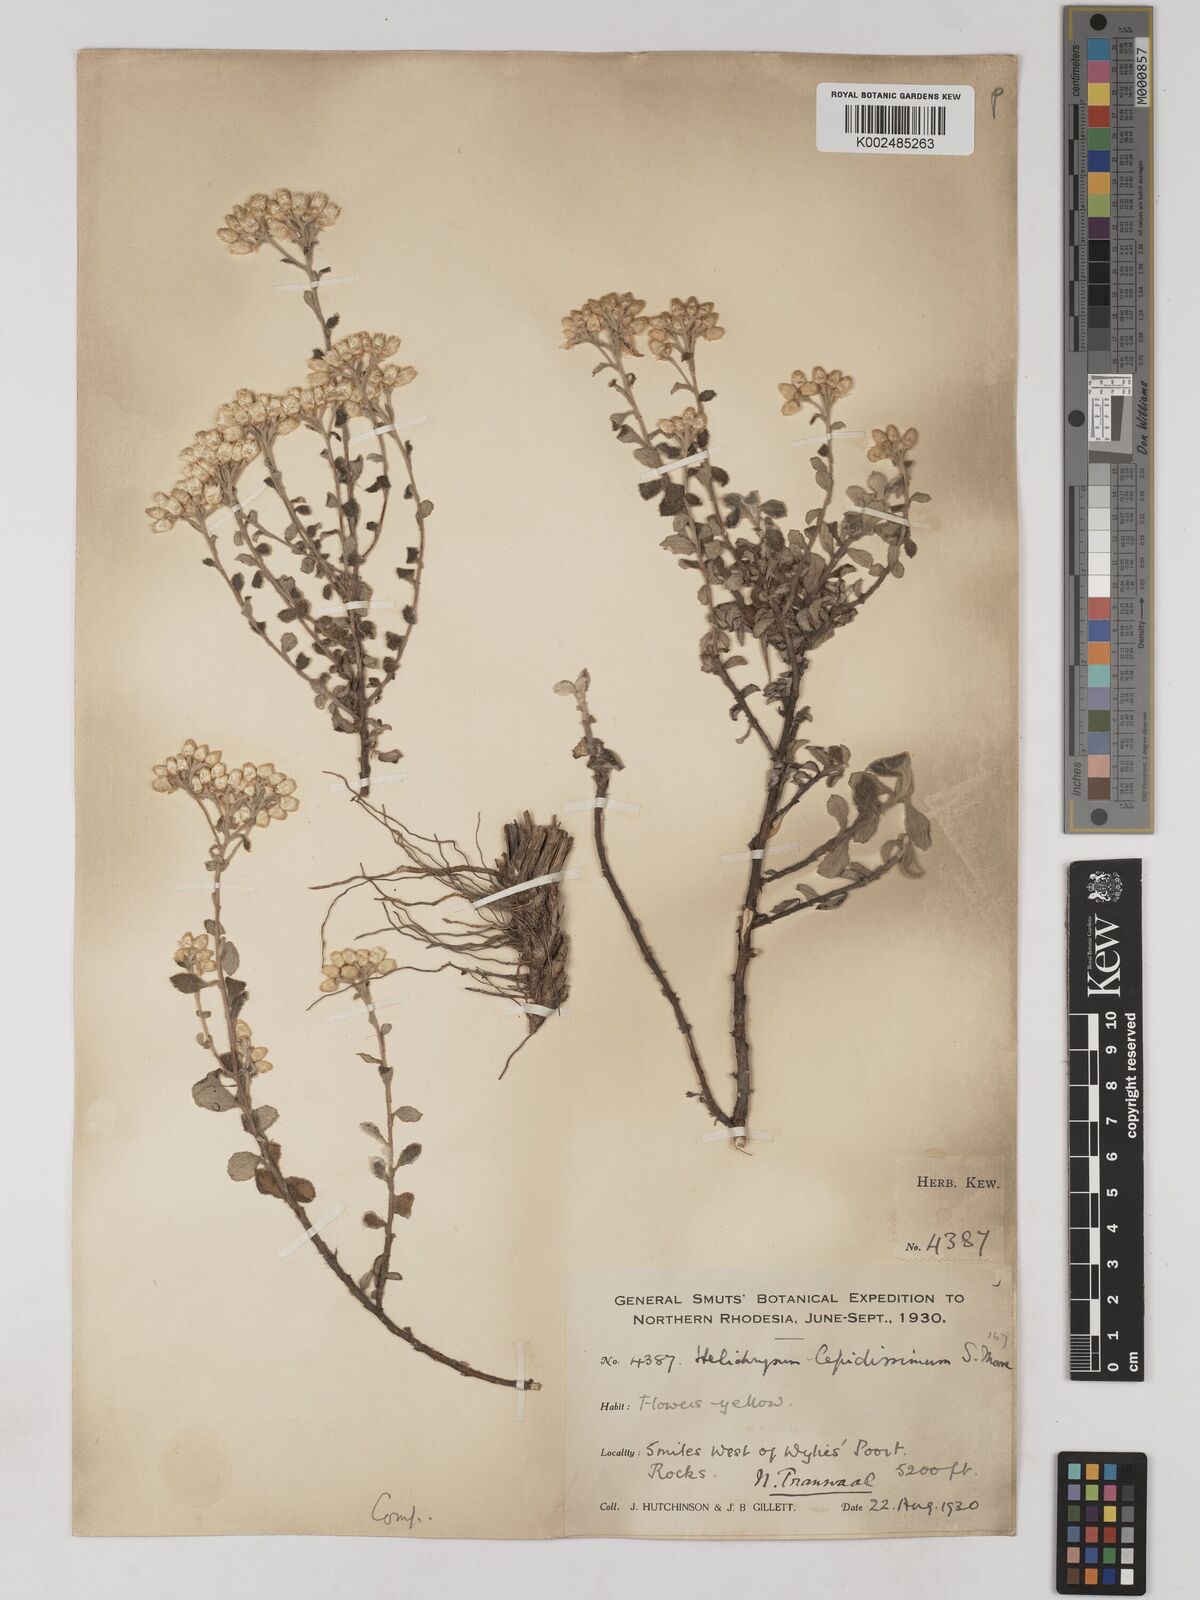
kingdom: Plantae
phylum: Tracheophyta
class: Magnoliopsida
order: Asterales
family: Asteraceae
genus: Helichrysum
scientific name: Helichrysum lepidissimum
